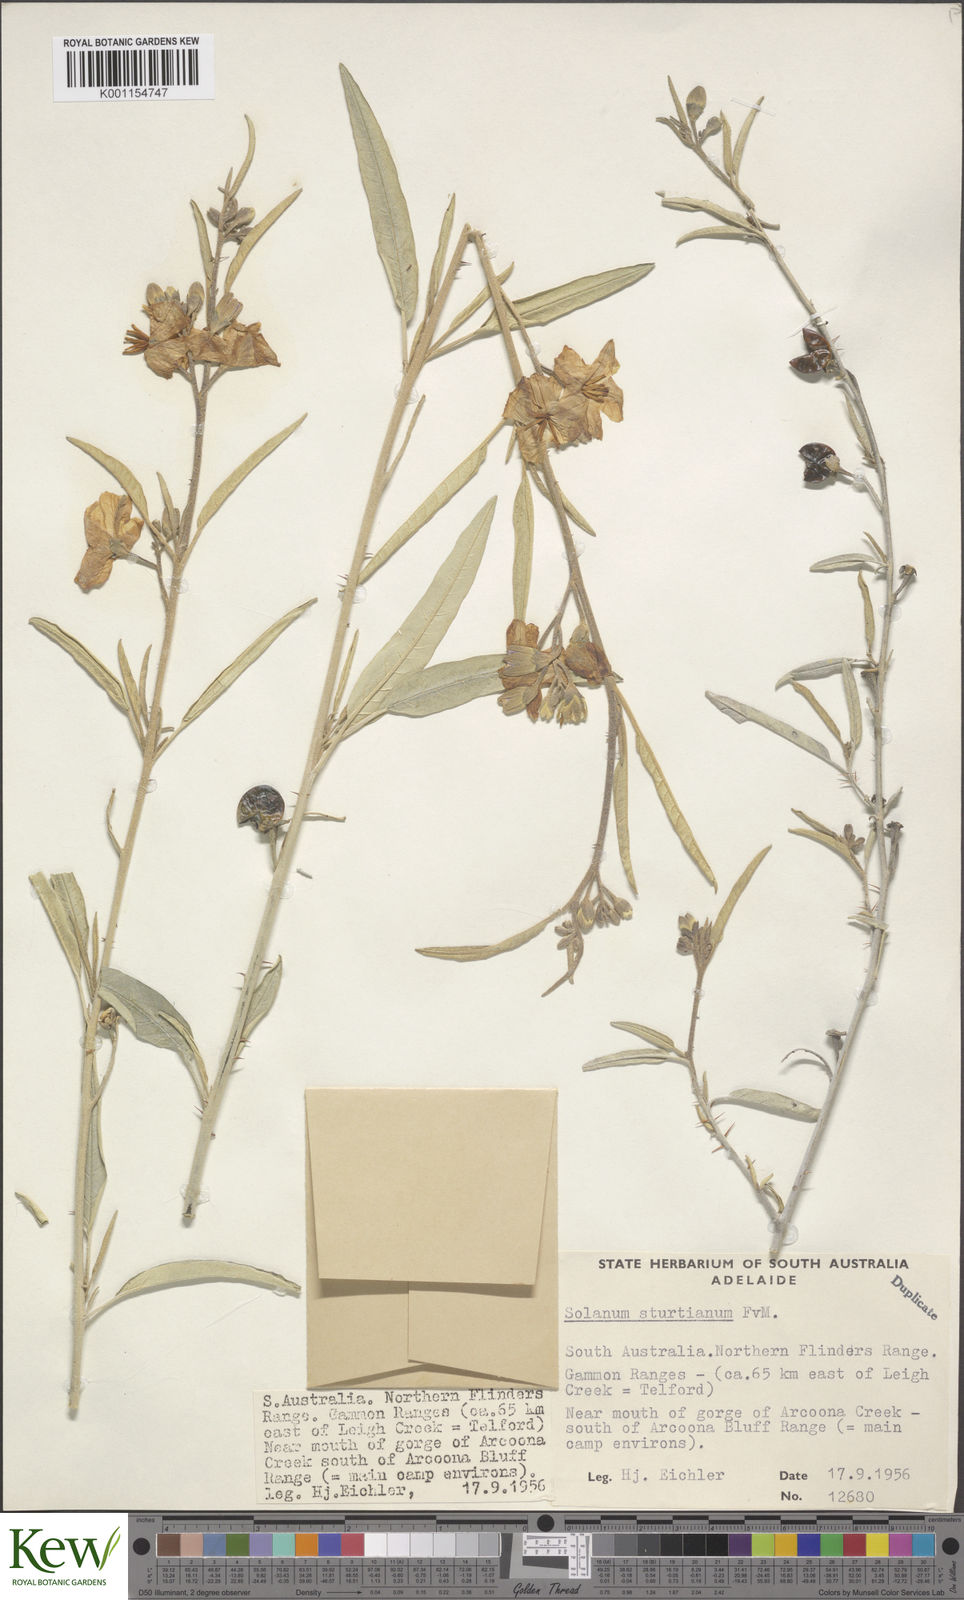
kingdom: Plantae
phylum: Tracheophyta
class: Magnoliopsida
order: Solanales
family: Solanaceae
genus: Solanum
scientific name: Solanum sturtianum
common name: Thargomindah nightshade
